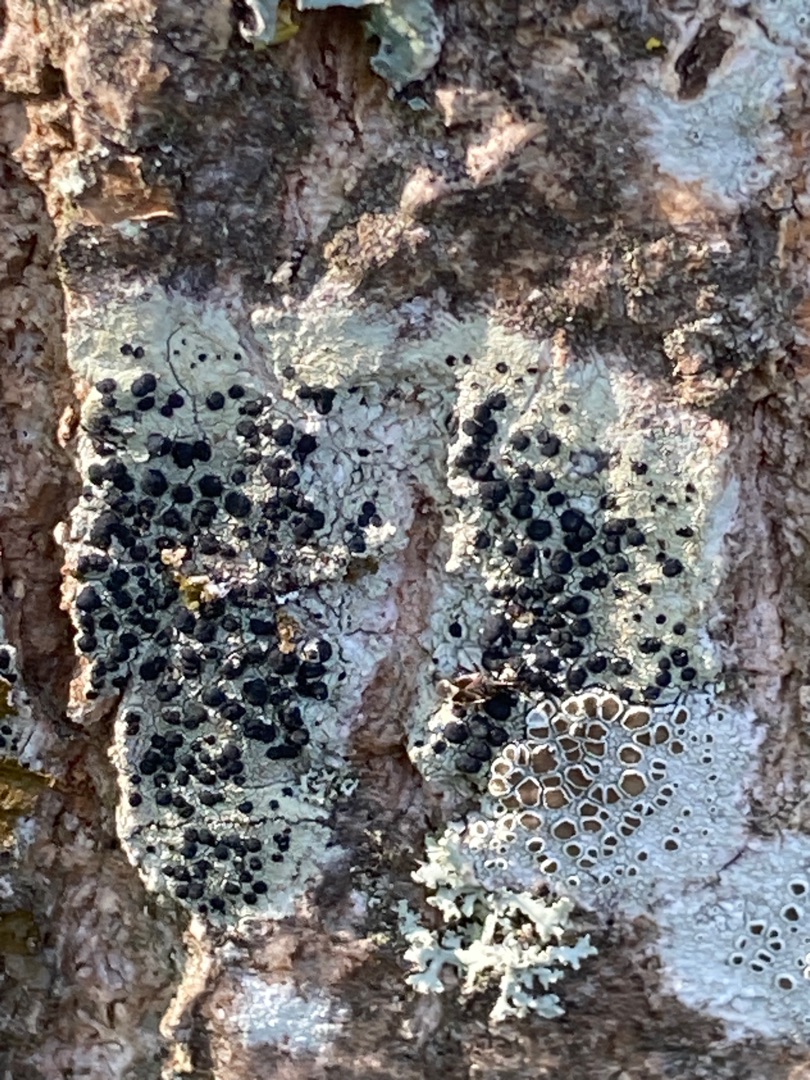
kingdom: Fungi
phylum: Ascomycota
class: Lecanoromycetes
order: Lecanorales
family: Lecanoraceae
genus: Lecidella
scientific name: Lecidella elaeochroma
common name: Grågrøn skivelav
